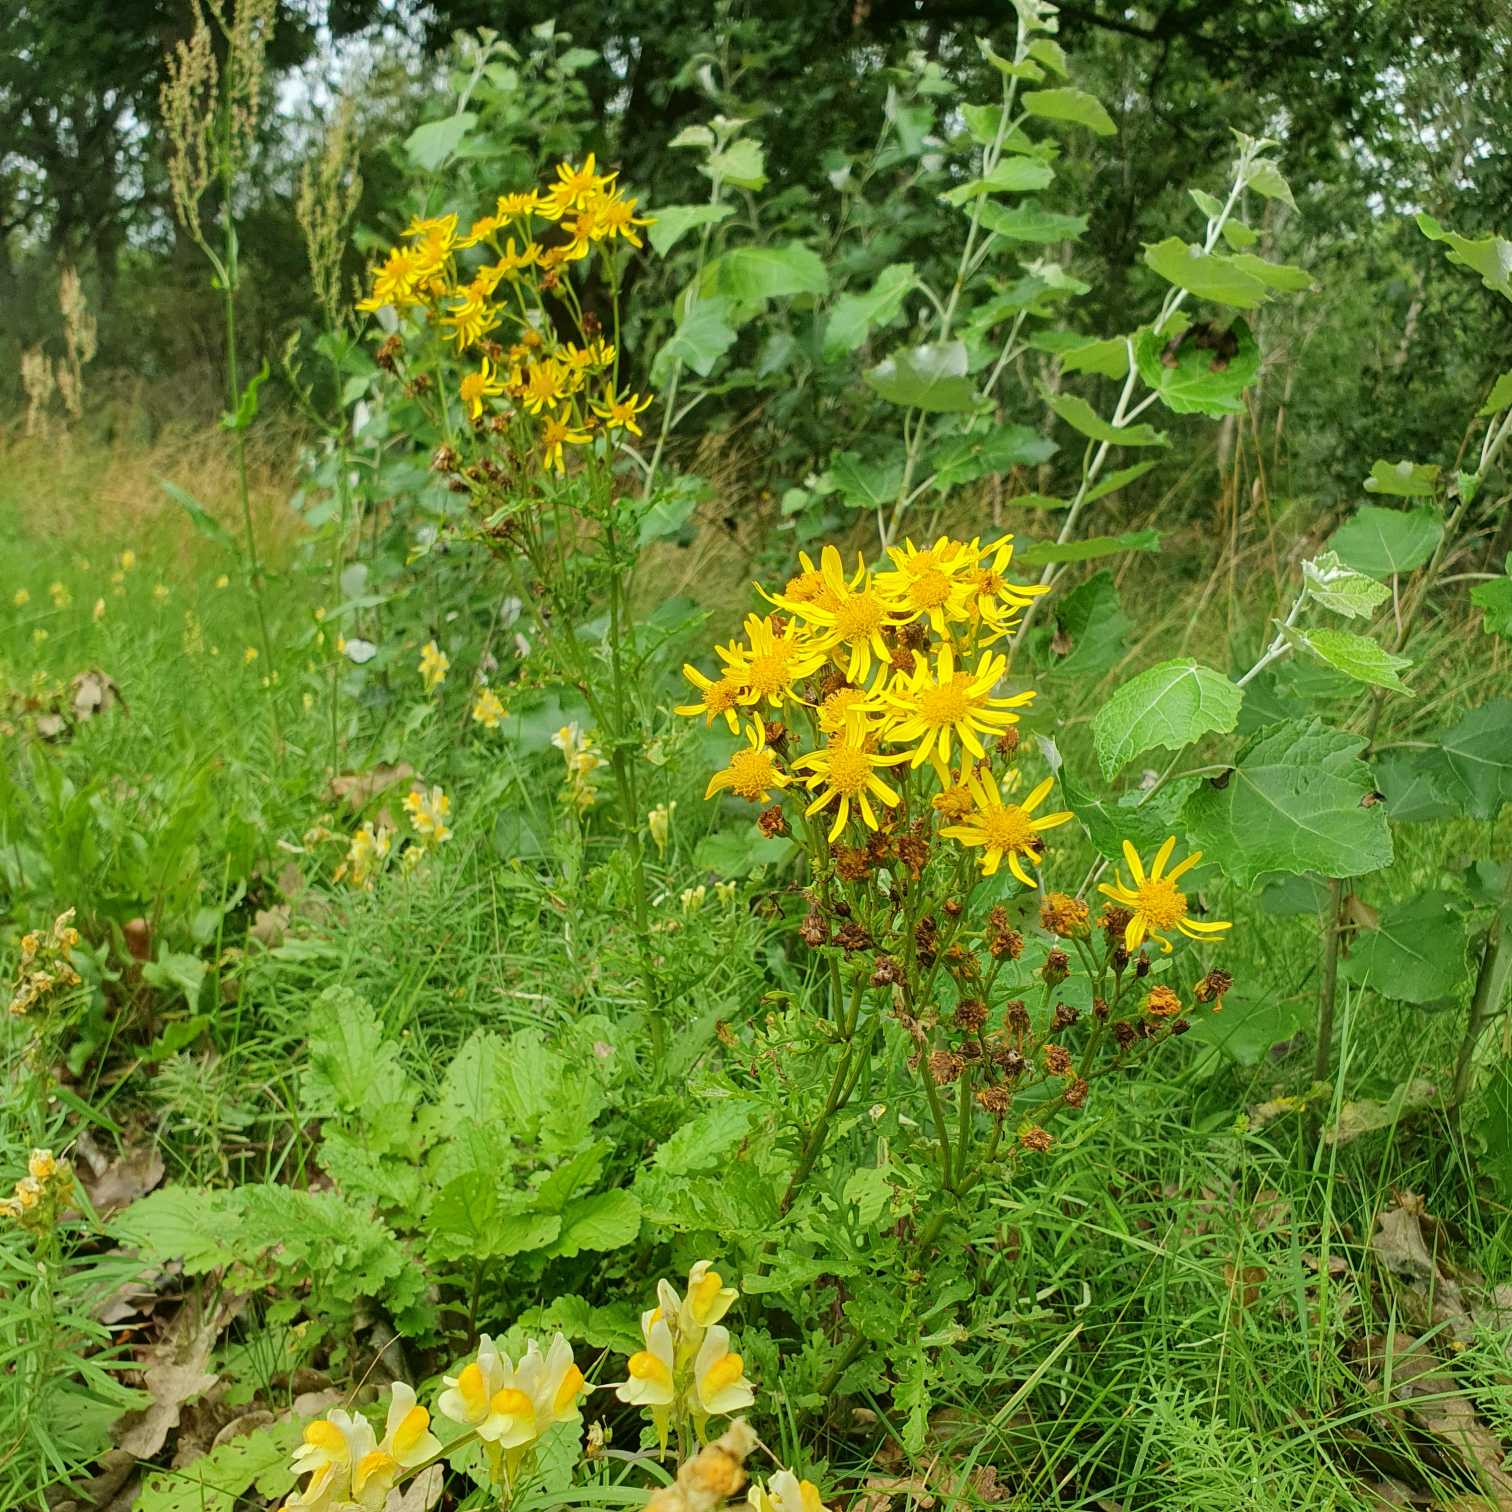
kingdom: Plantae
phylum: Tracheophyta
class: Magnoliopsida
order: Asterales
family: Asteraceae
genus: Jacobaea
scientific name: Jacobaea vulgaris
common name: Eng-brandbæger
